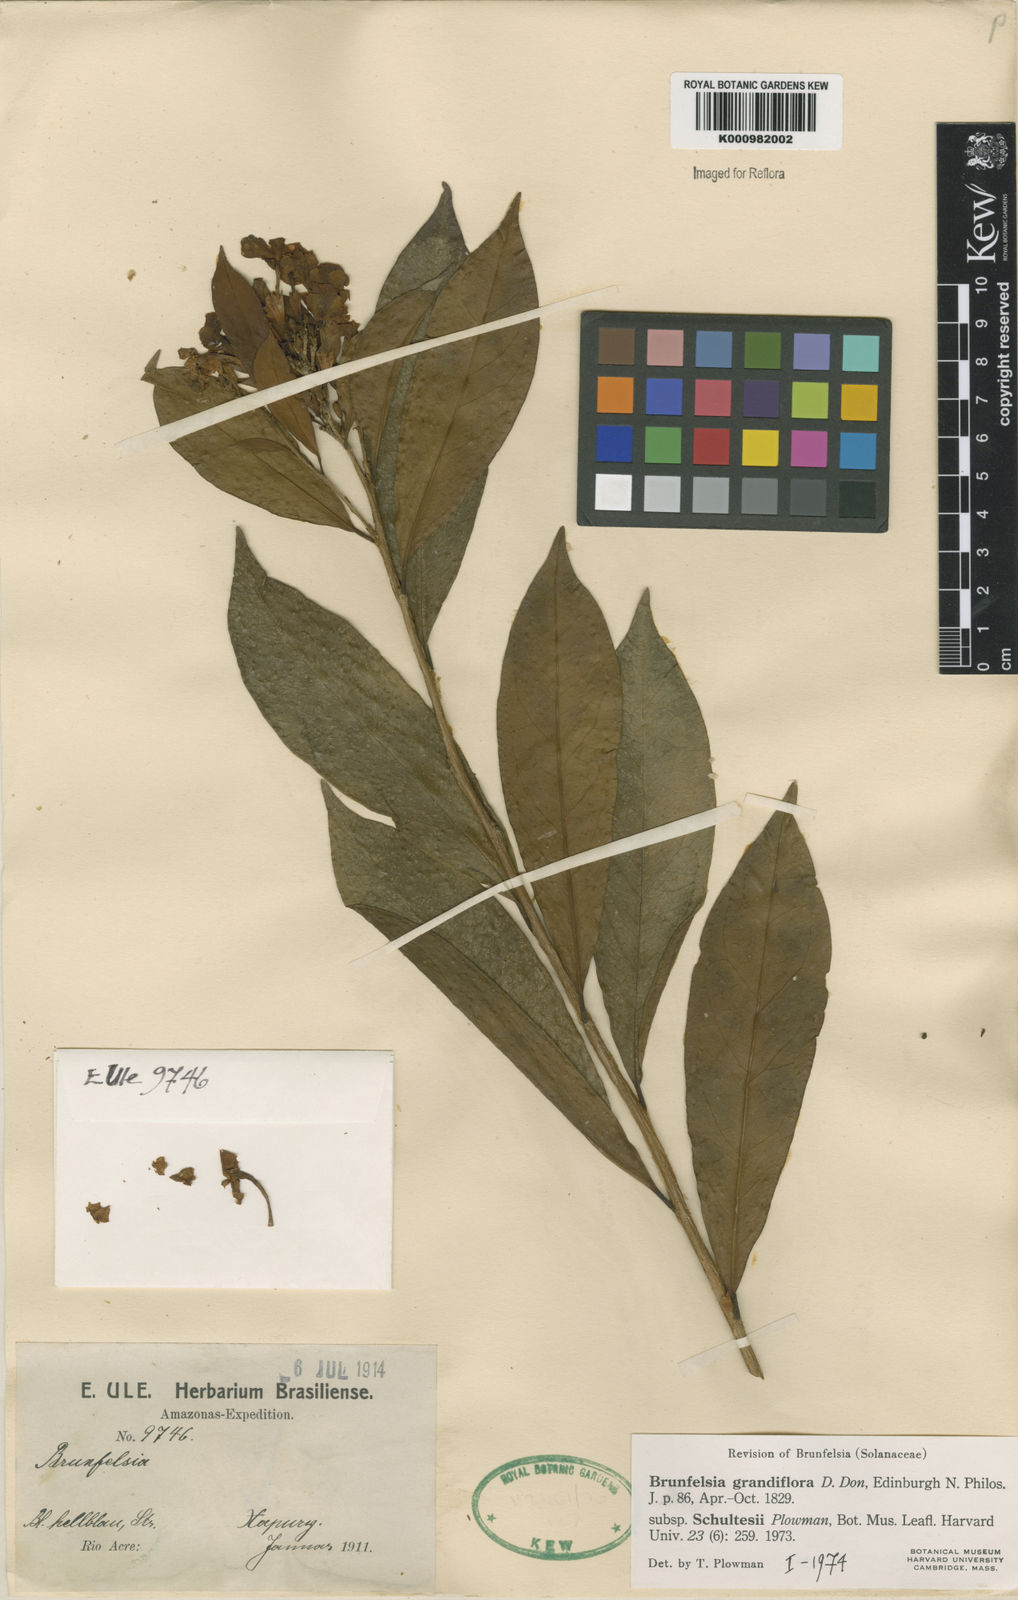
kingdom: Plantae
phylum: Tracheophyta
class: Magnoliopsida
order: Solanales
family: Solanaceae
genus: Brunfelsia
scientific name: Brunfelsia grandiflora
